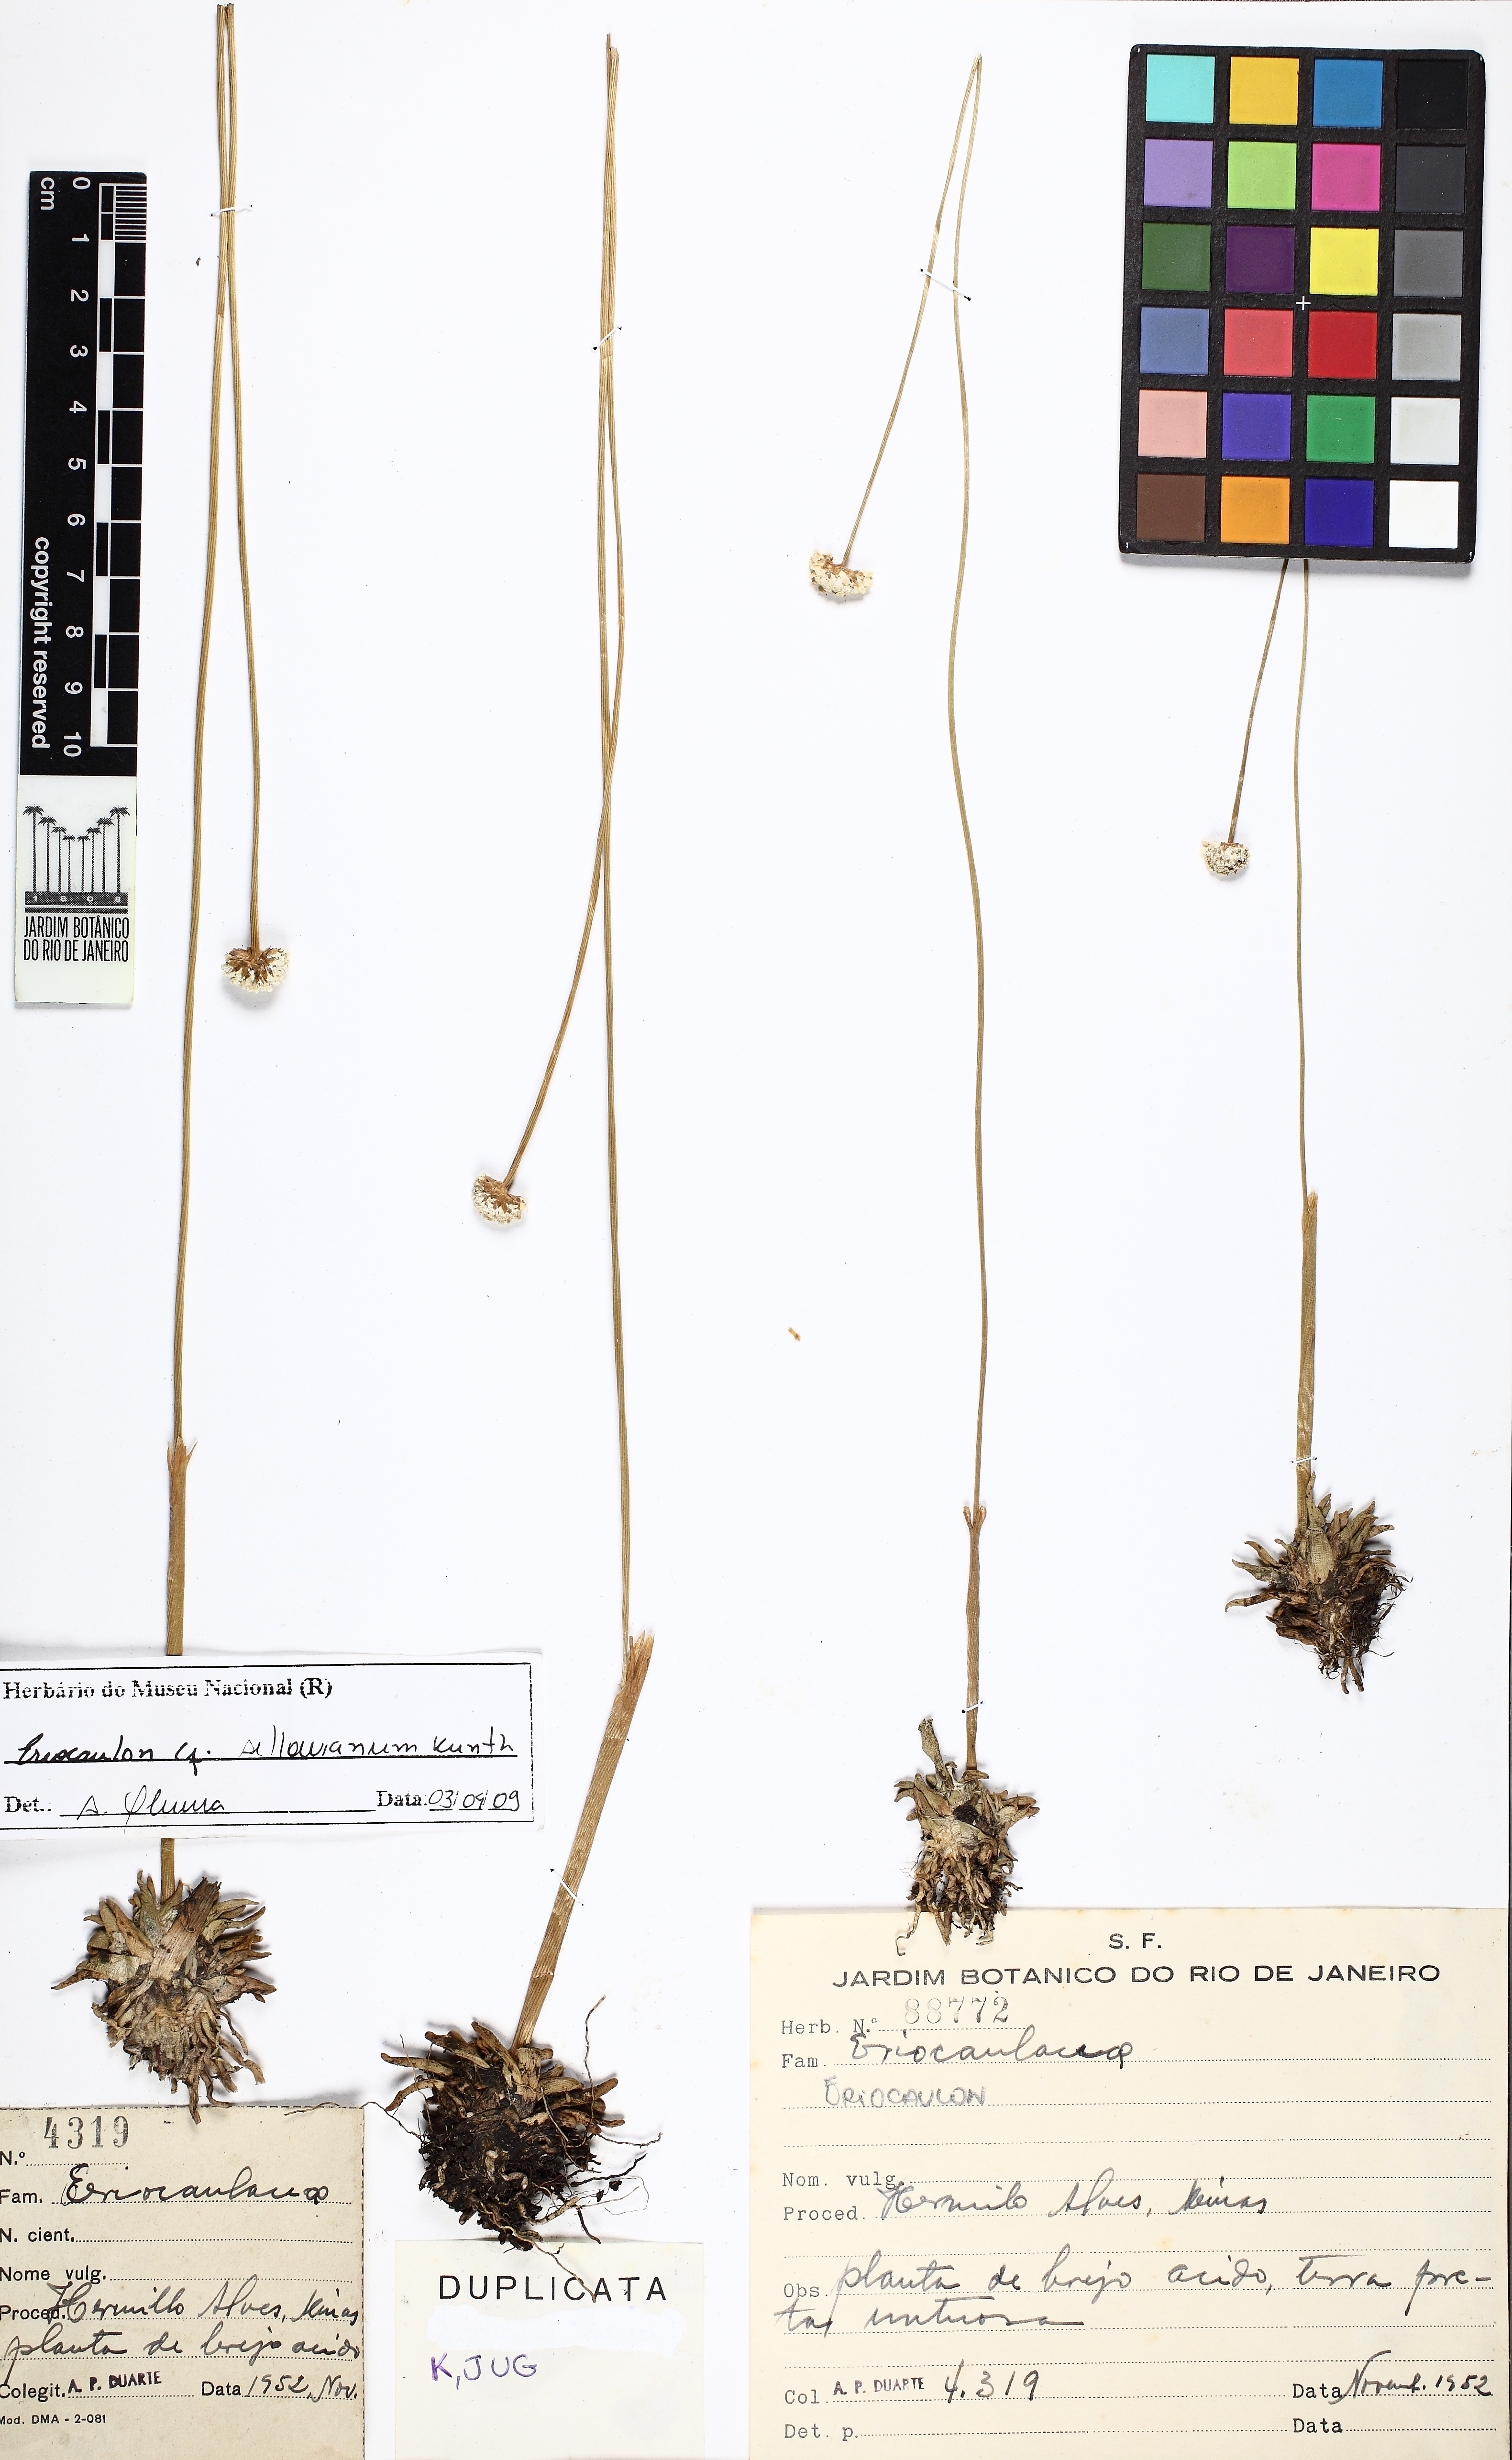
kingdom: Plantae
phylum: Tracheophyta
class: Liliopsida
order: Poales
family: Eriocaulaceae
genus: Eriocaulon
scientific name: Eriocaulon sellowianum
